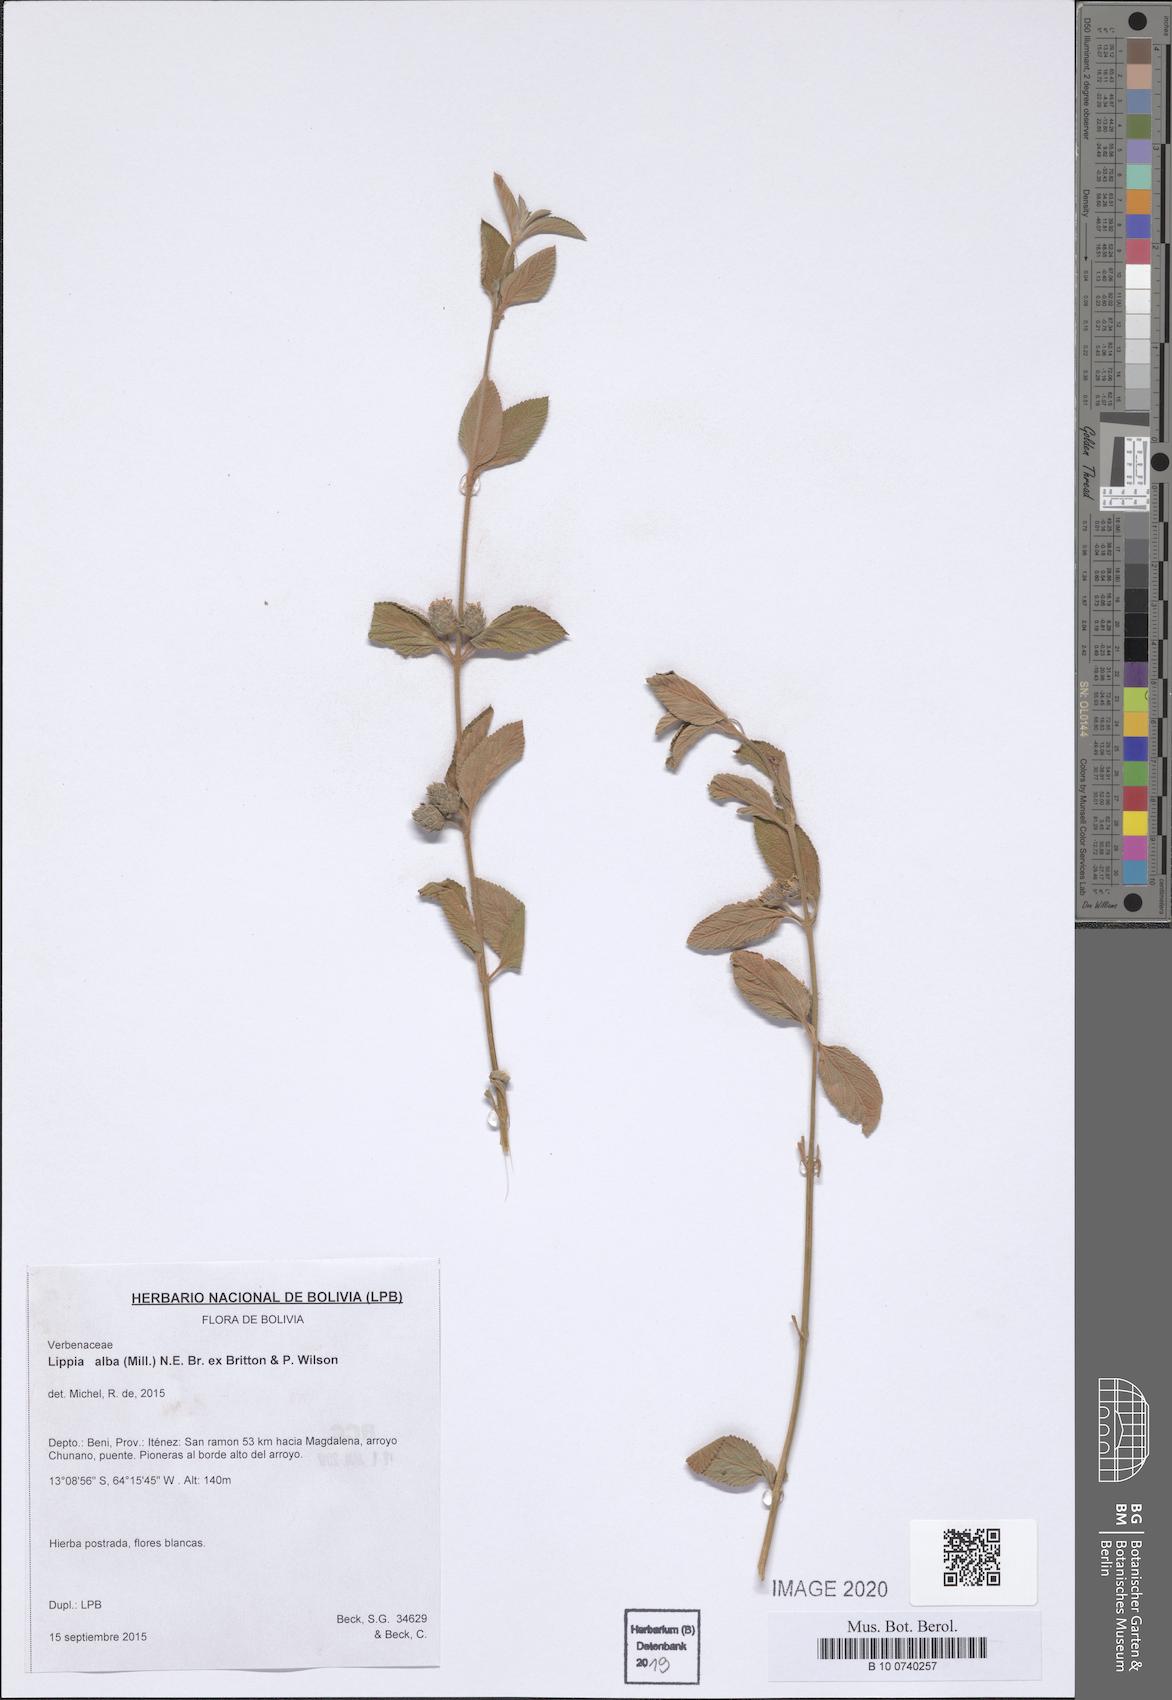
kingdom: Plantae
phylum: Tracheophyta
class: Magnoliopsida
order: Lamiales
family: Verbenaceae
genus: Lippia
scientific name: Lippia alba
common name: Bushy matgrass
